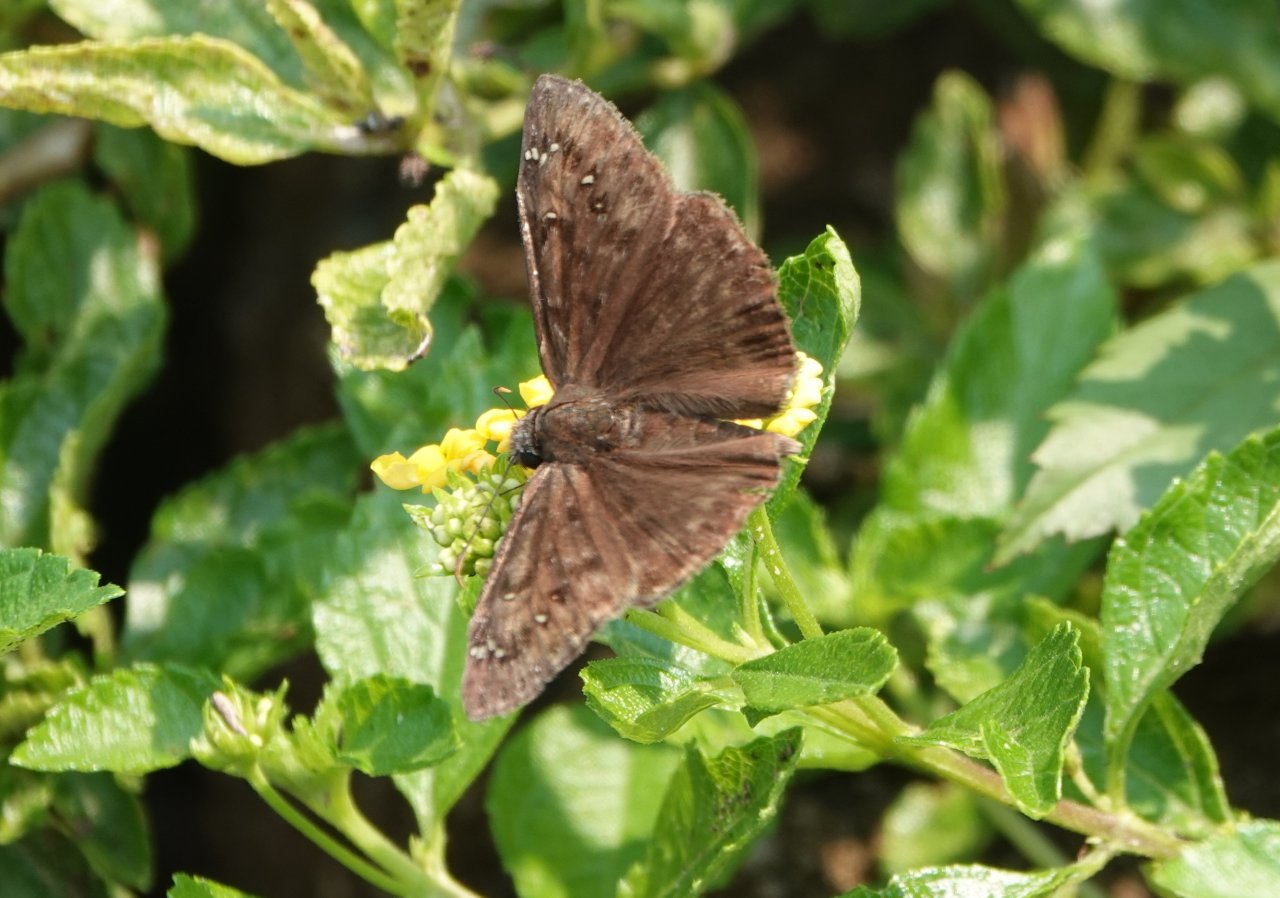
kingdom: Animalia
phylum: Arthropoda
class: Insecta
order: Lepidoptera
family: Hesperiidae
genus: Gesta
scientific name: Gesta
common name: Horace's Duskywing
